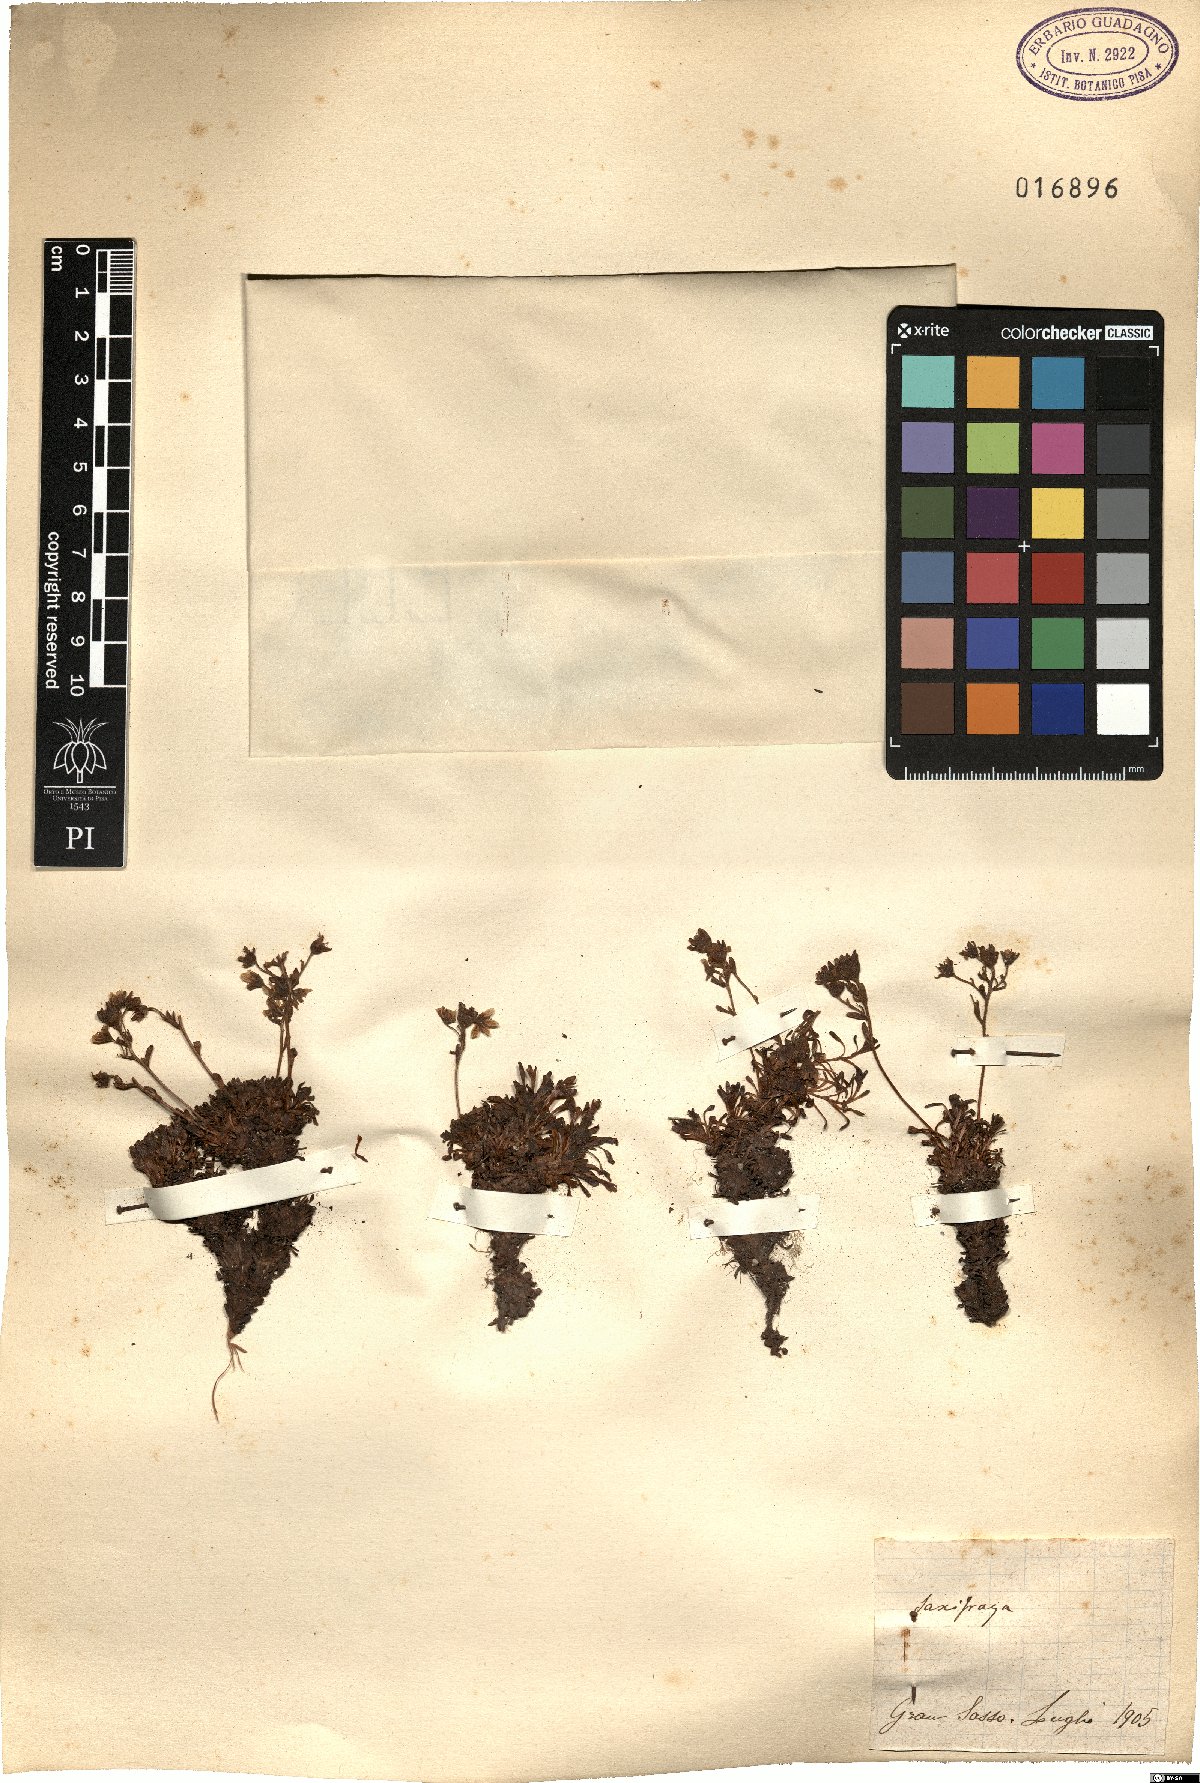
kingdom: Plantae
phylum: Tracheophyta
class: Magnoliopsida
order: Saxifragales
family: Saxifragaceae
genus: Saxifraga
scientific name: Saxifraga
